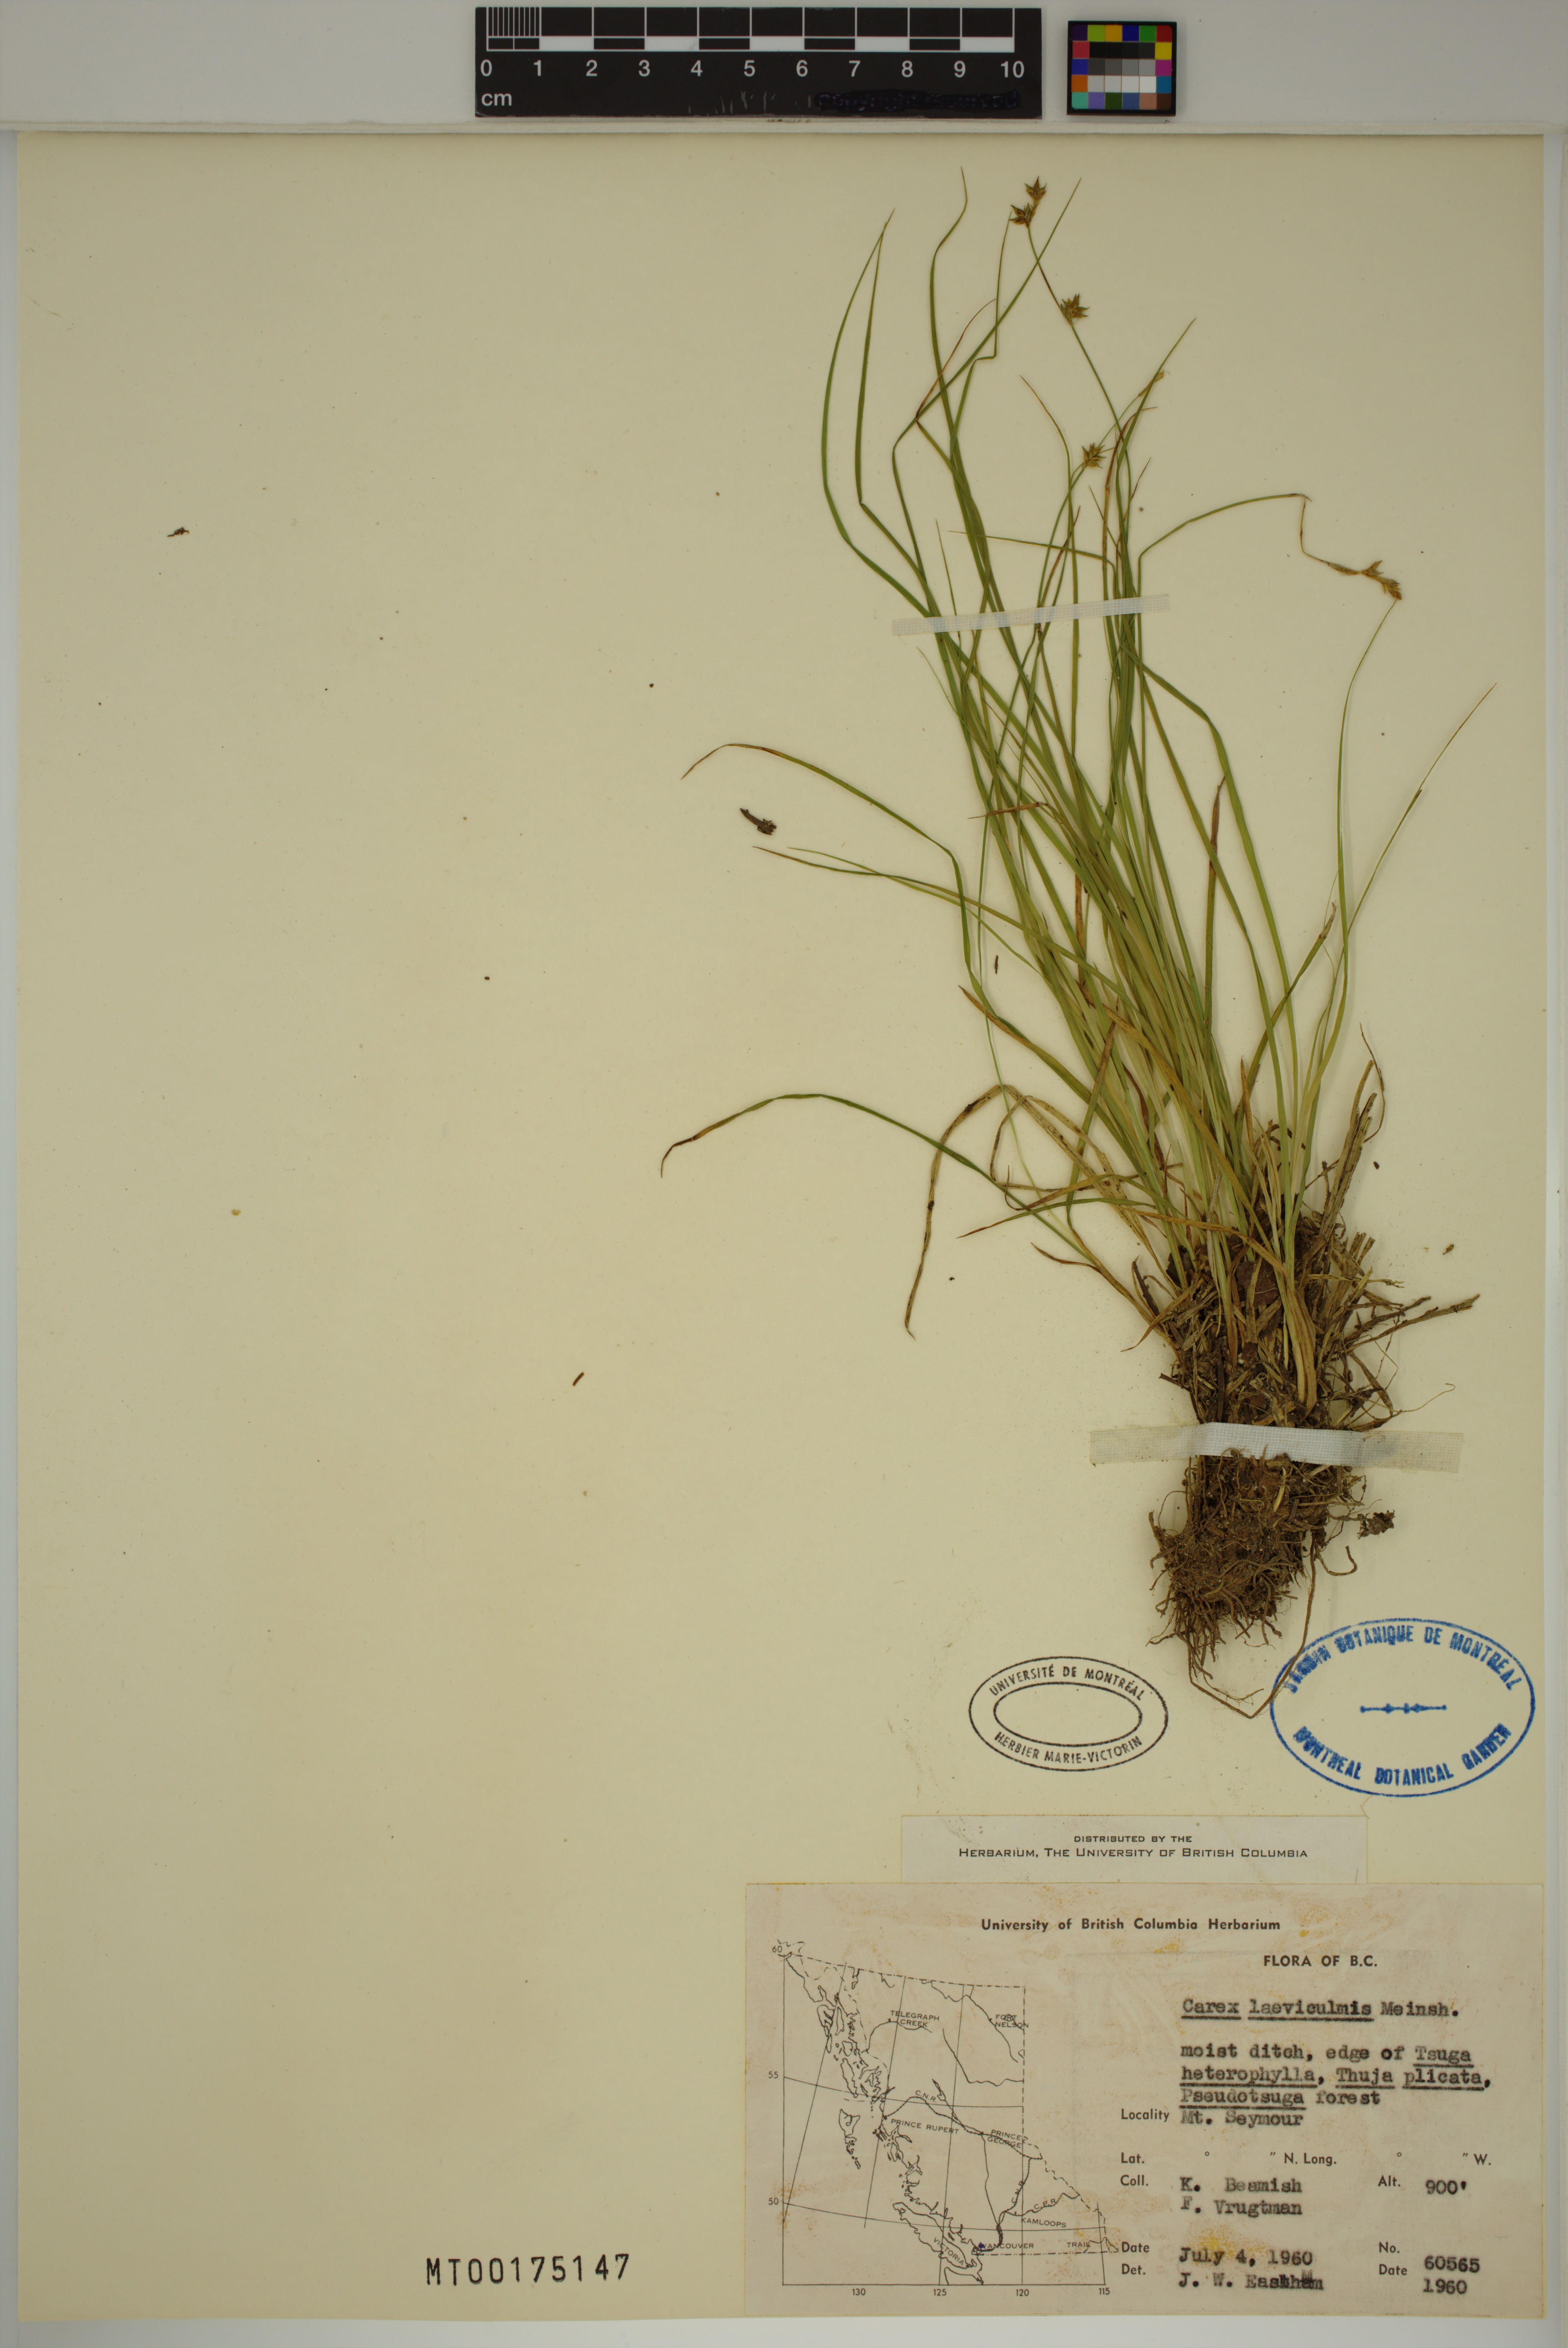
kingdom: Plantae
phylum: Tracheophyta
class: Liliopsida
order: Poales
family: Cyperaceae
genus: Carex
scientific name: Carex laeviculmis
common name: Smooth sedge
